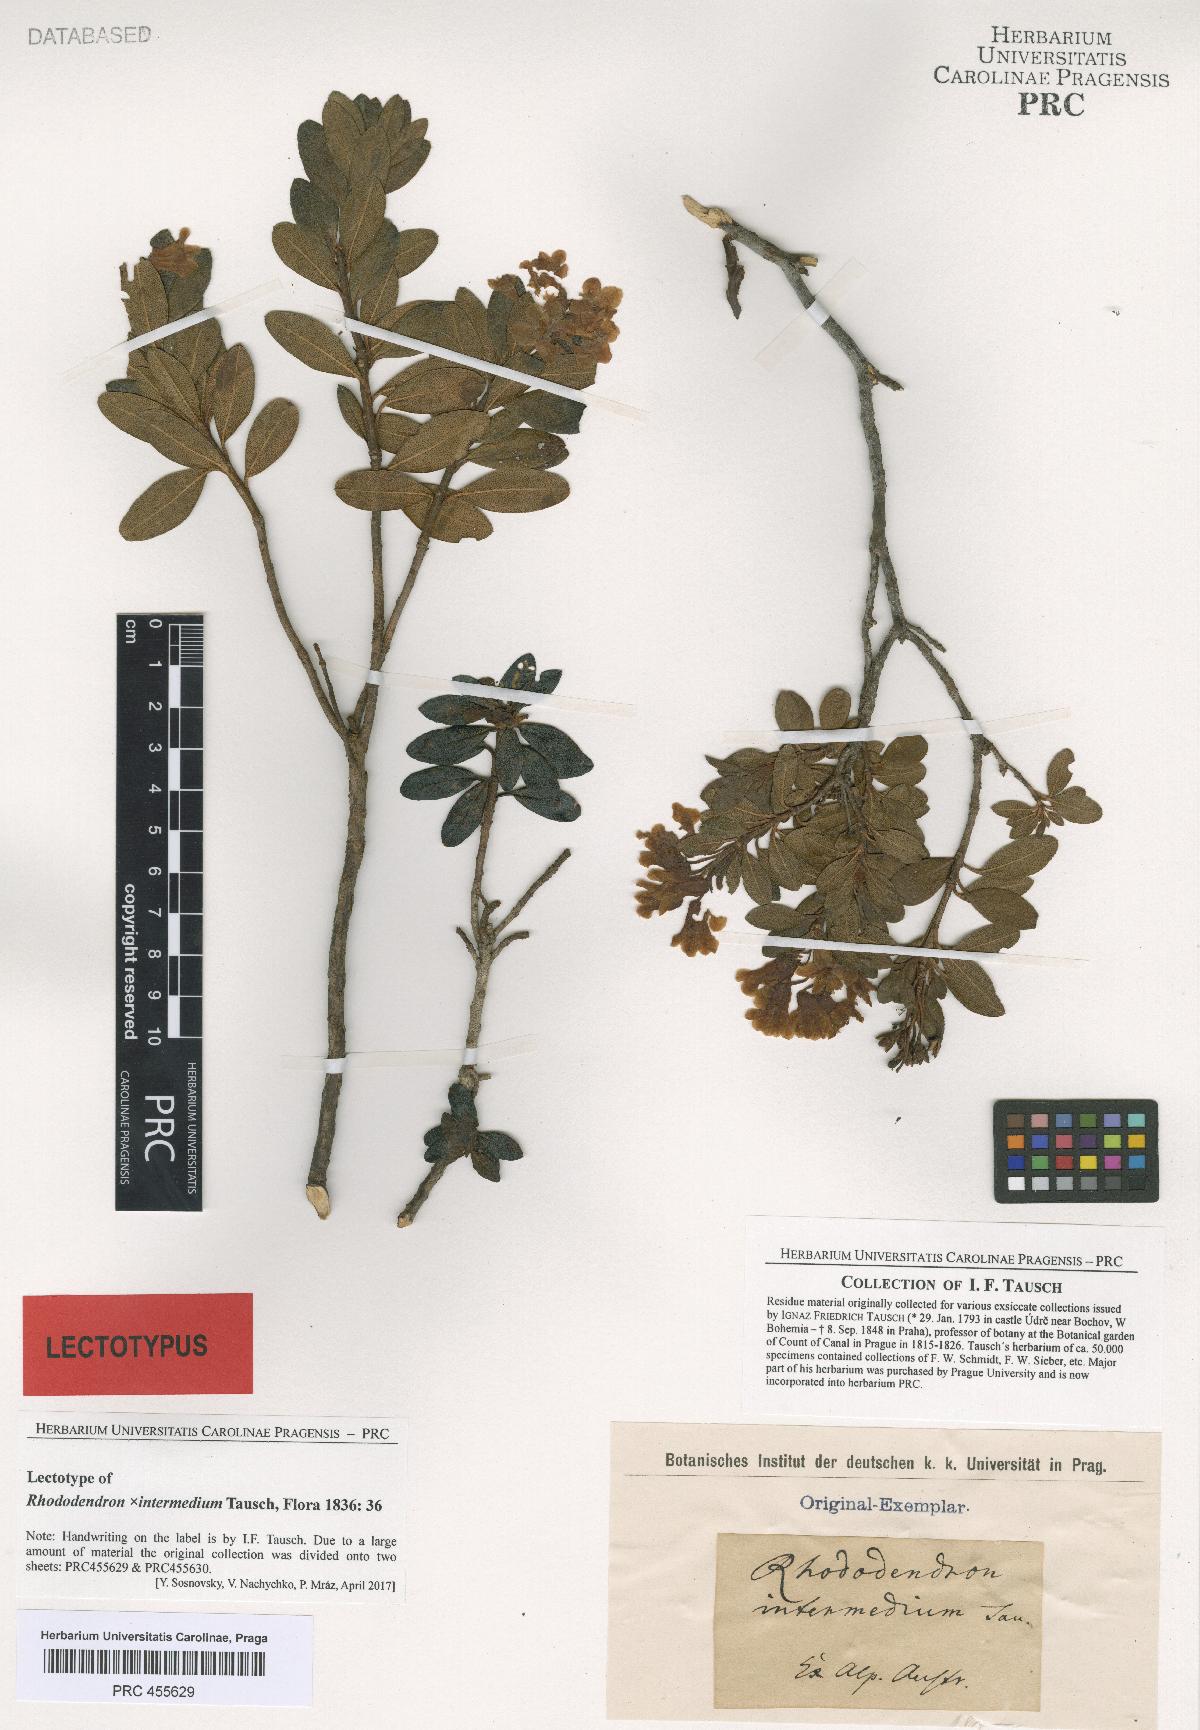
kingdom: Plantae
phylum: Tracheophyta
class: Magnoliopsida
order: Ericales
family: Ericaceae
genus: Rhododendron
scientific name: Rhododendron intermedium
